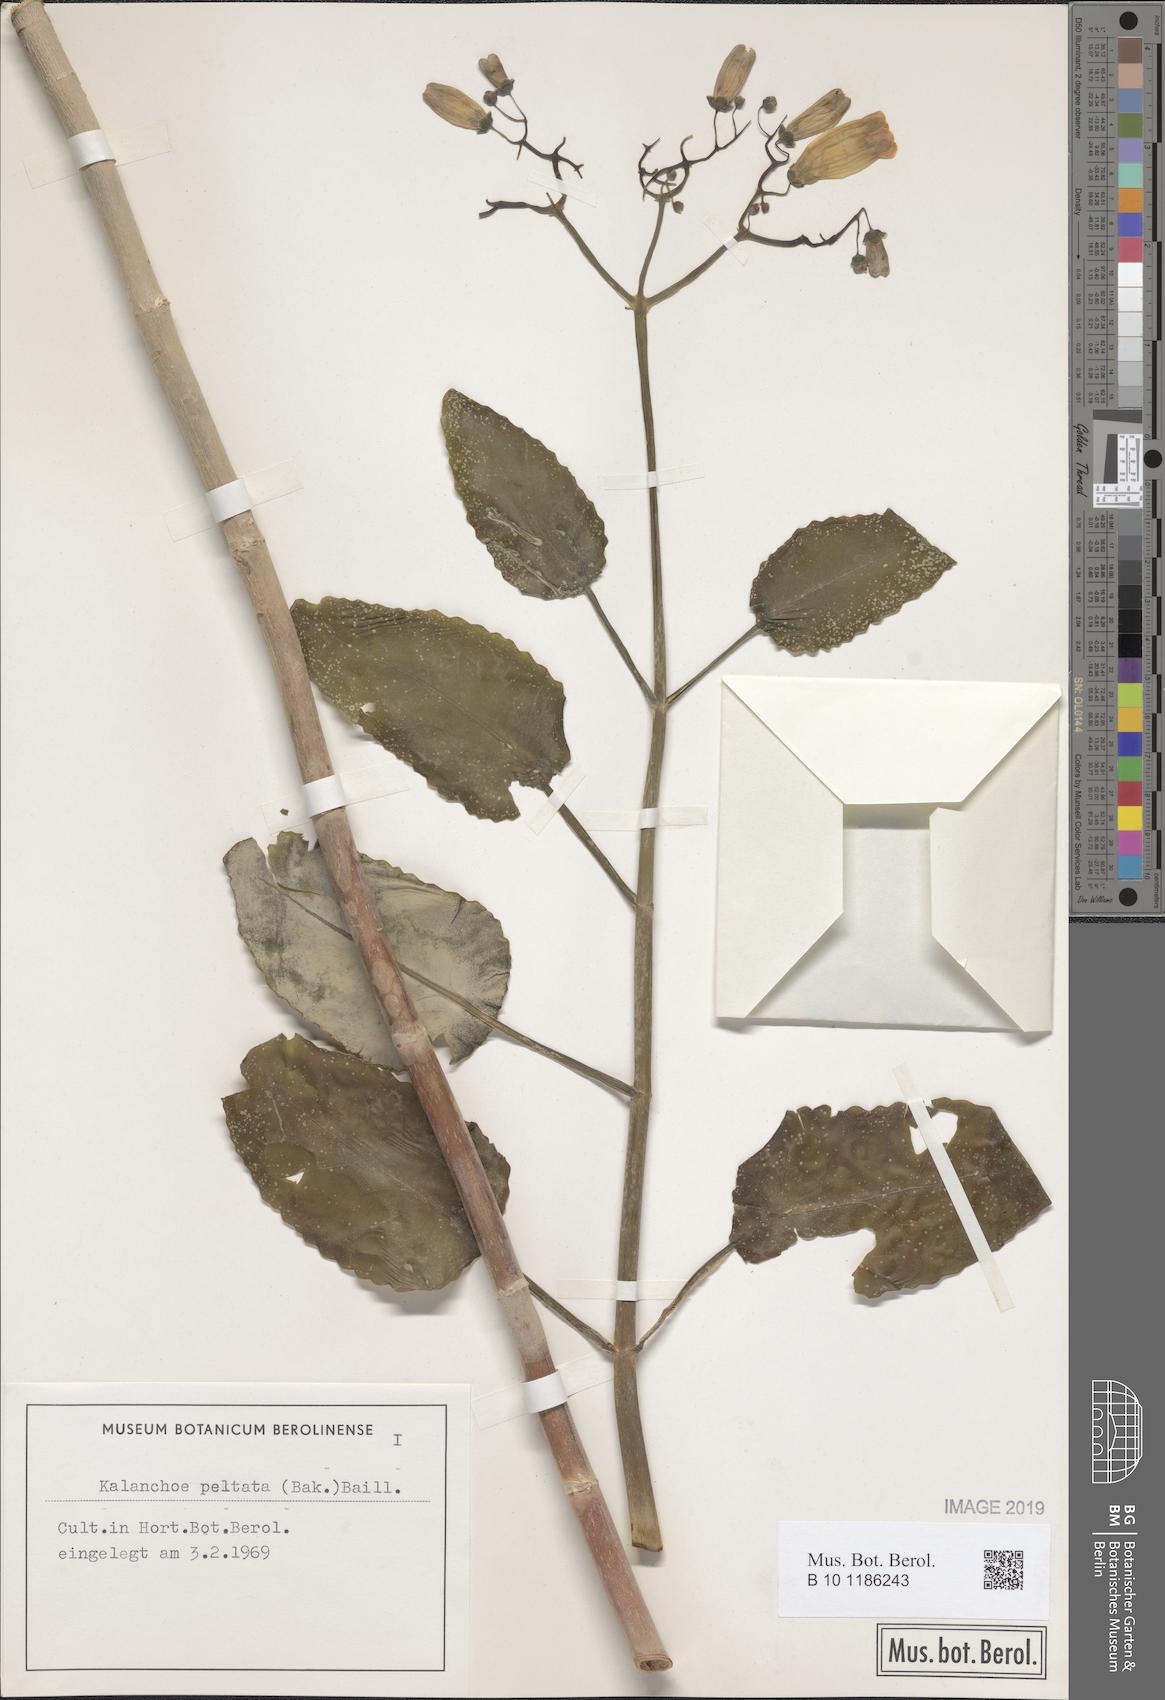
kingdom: Plantae
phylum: Tracheophyta
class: Magnoliopsida
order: Saxifragales
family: Crassulaceae
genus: Kalanchoe
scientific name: Kalanchoe peltata
